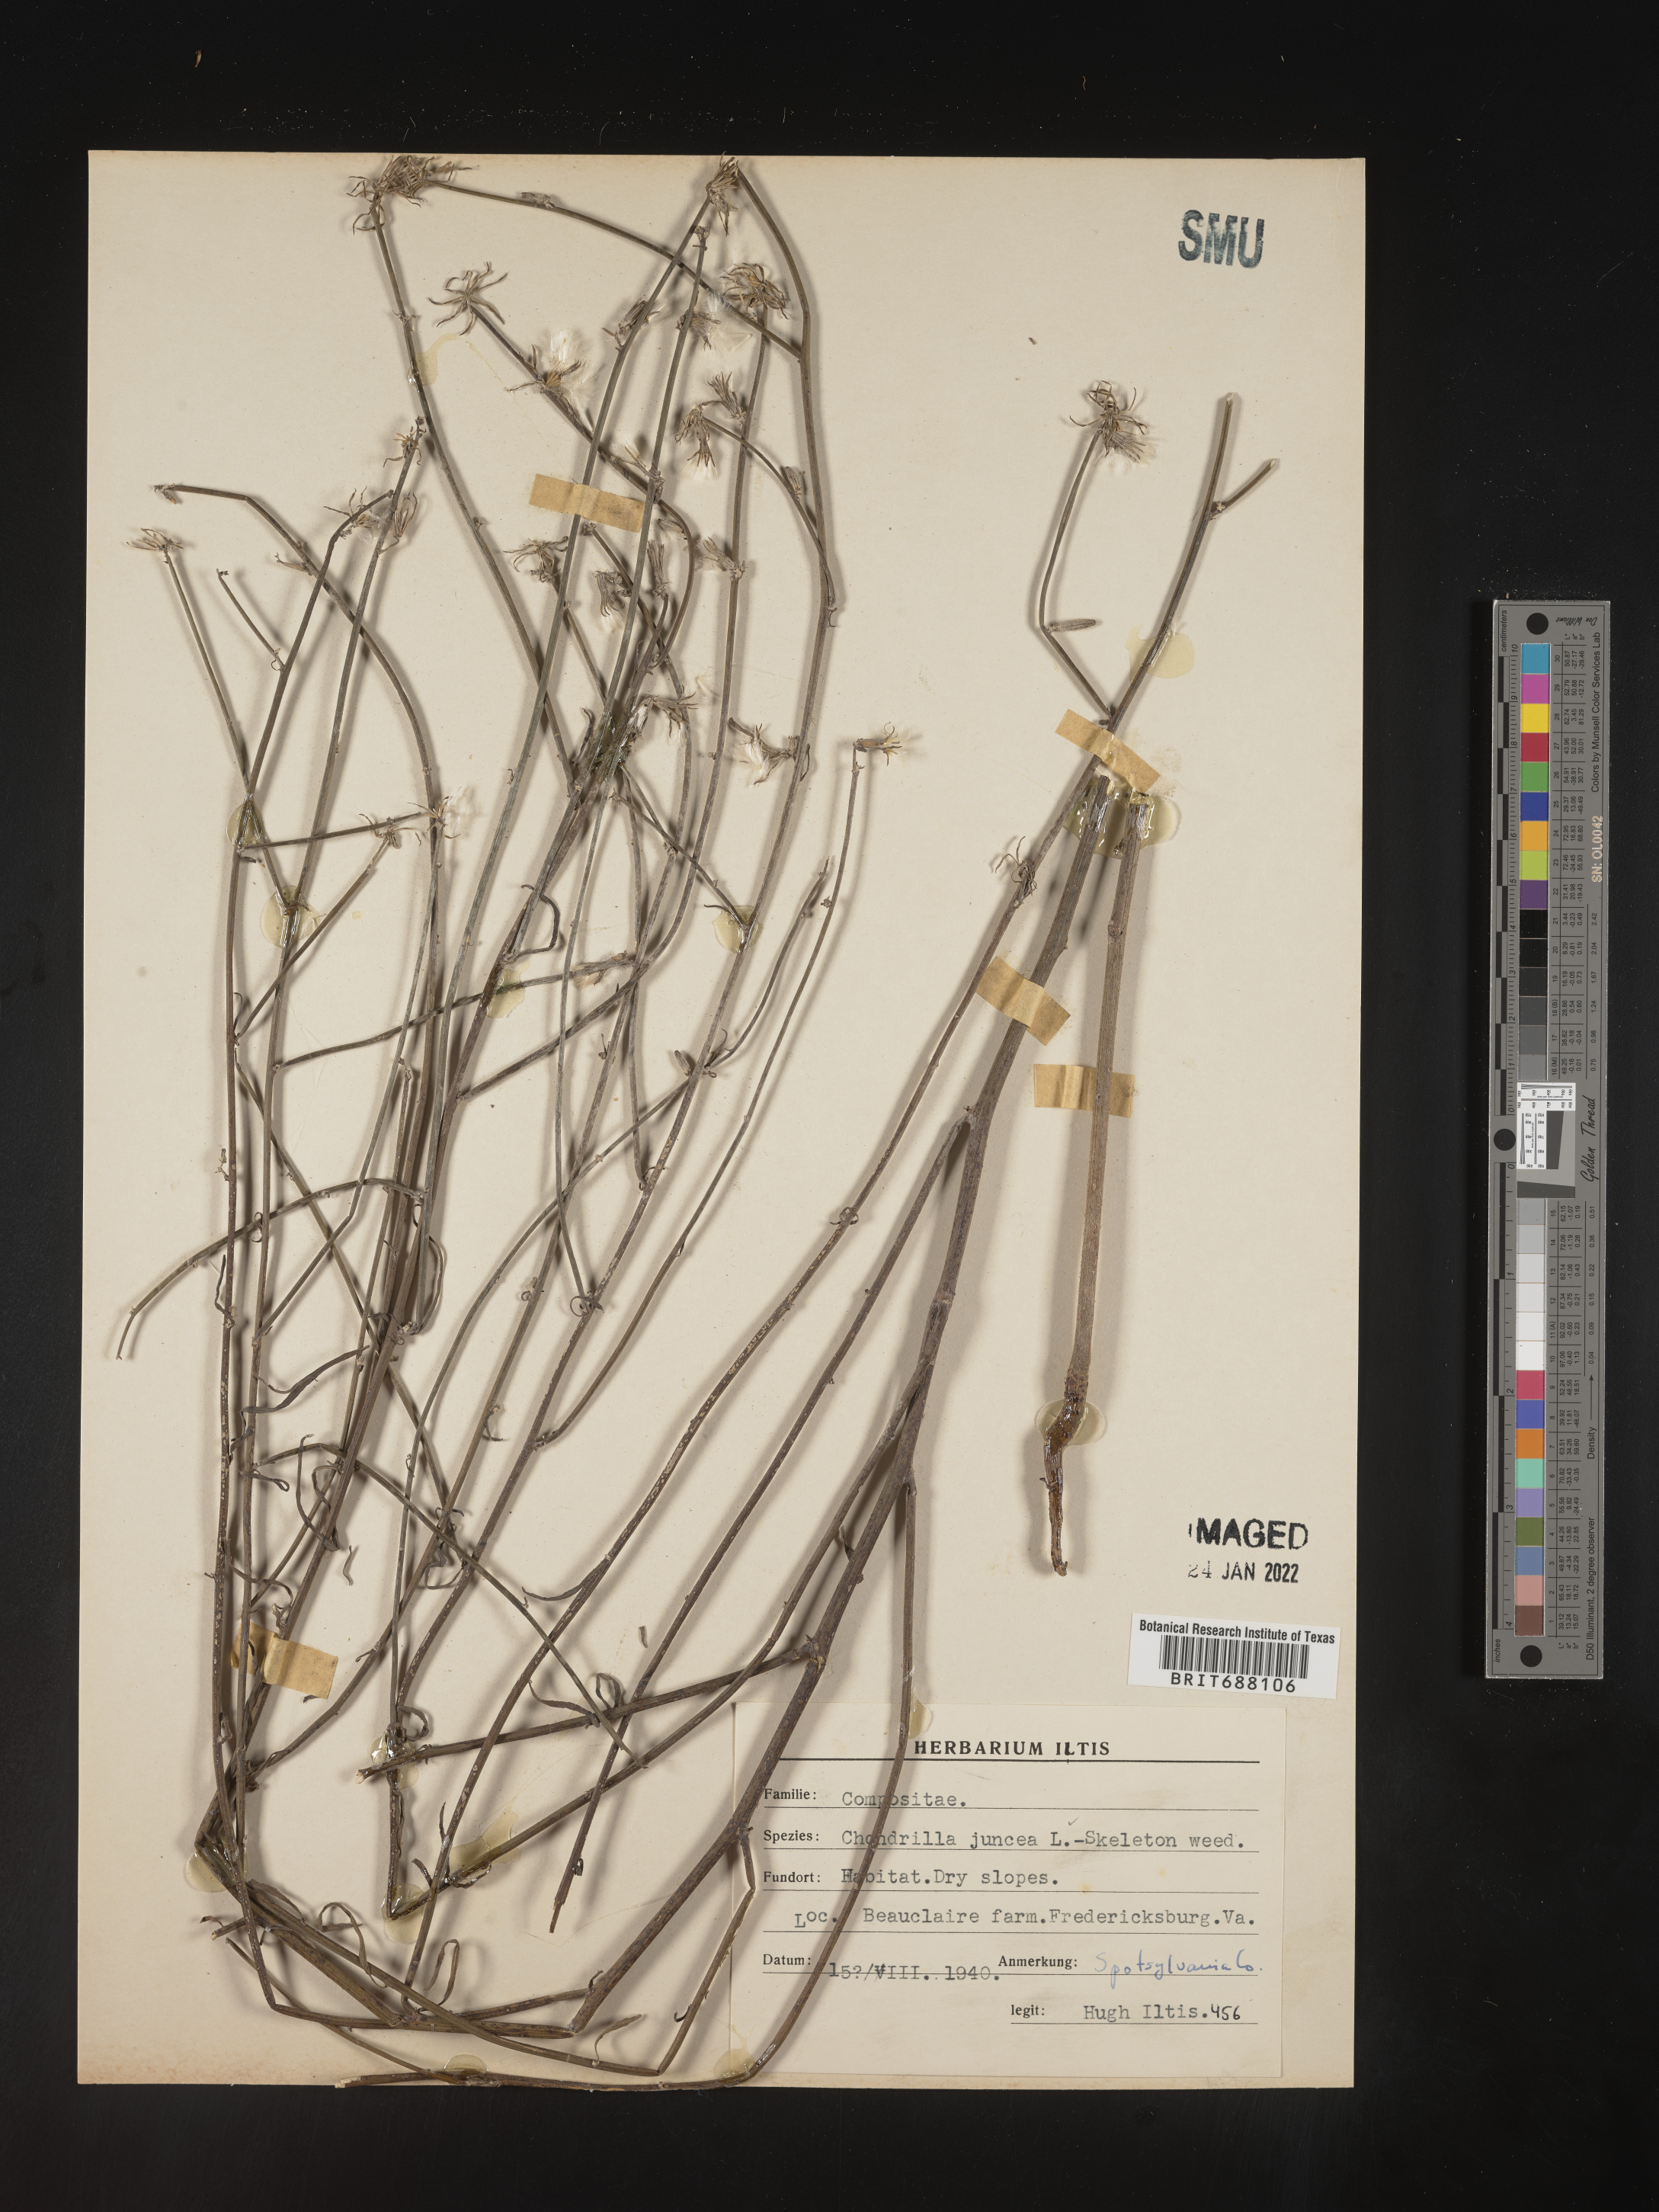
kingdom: Plantae
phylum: Tracheophyta
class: Magnoliopsida
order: Asterales
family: Asteraceae
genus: Chondrilla
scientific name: Chondrilla
